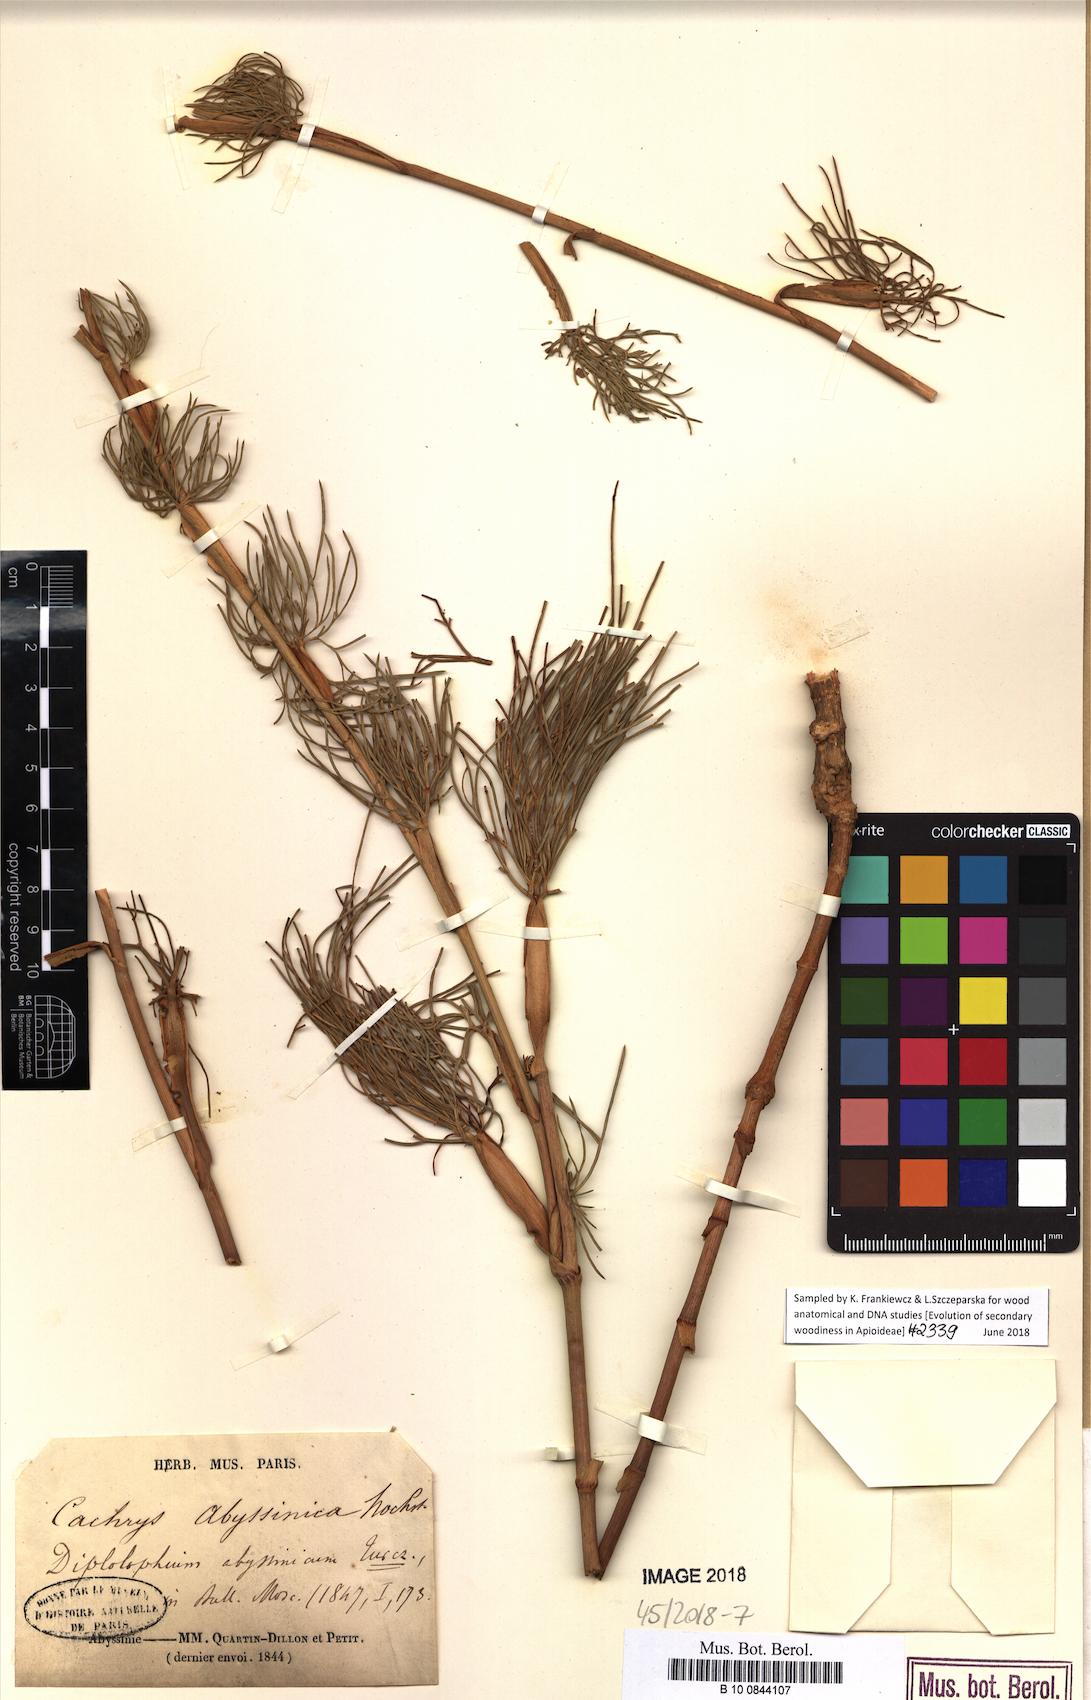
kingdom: Plantae
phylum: Tracheophyta
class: Magnoliopsida
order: Apiales
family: Apiaceae
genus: Diplolophium
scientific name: Diplolophium africanum
